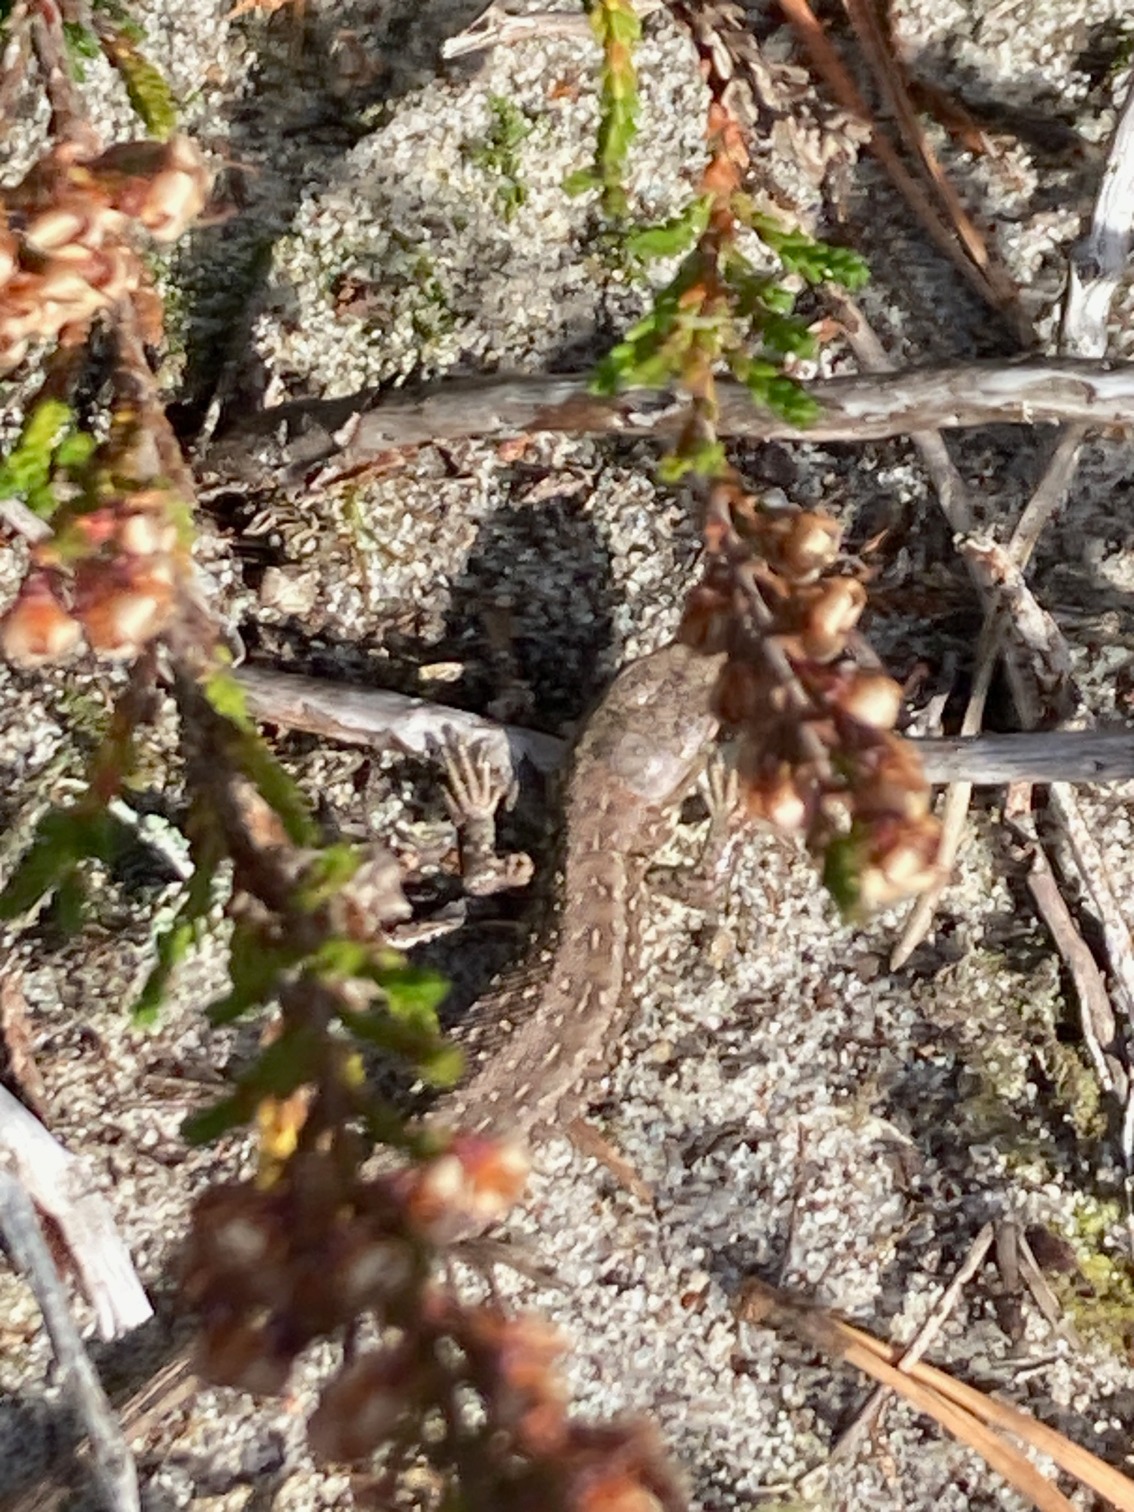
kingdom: Animalia
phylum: Chordata
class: Squamata
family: Lacertidae
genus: Lacerta
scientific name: Lacerta agilis
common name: Markfirben
